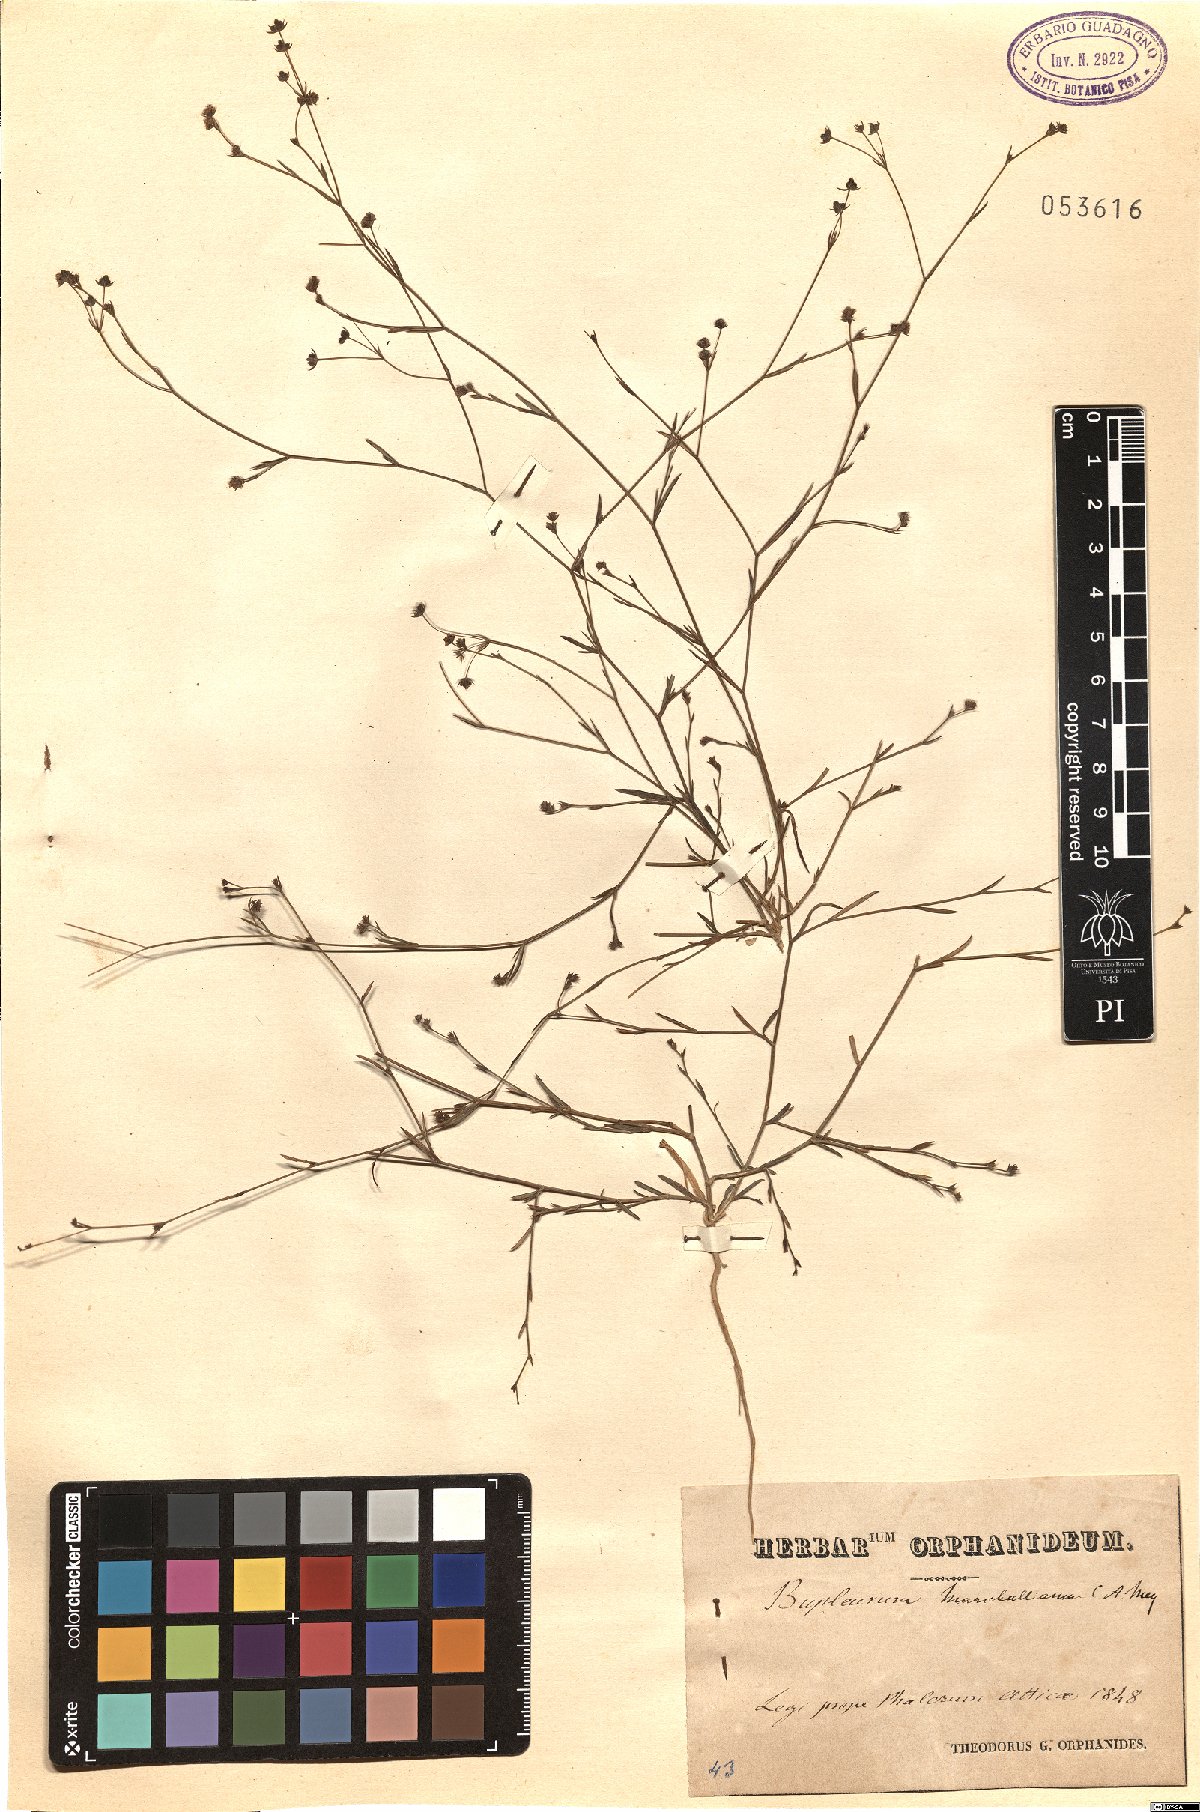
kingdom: Plantae
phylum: Tracheophyta
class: Magnoliopsida
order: Apiales
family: Apiaceae
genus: Bupleurum
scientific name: Bupleurum marschallianum
